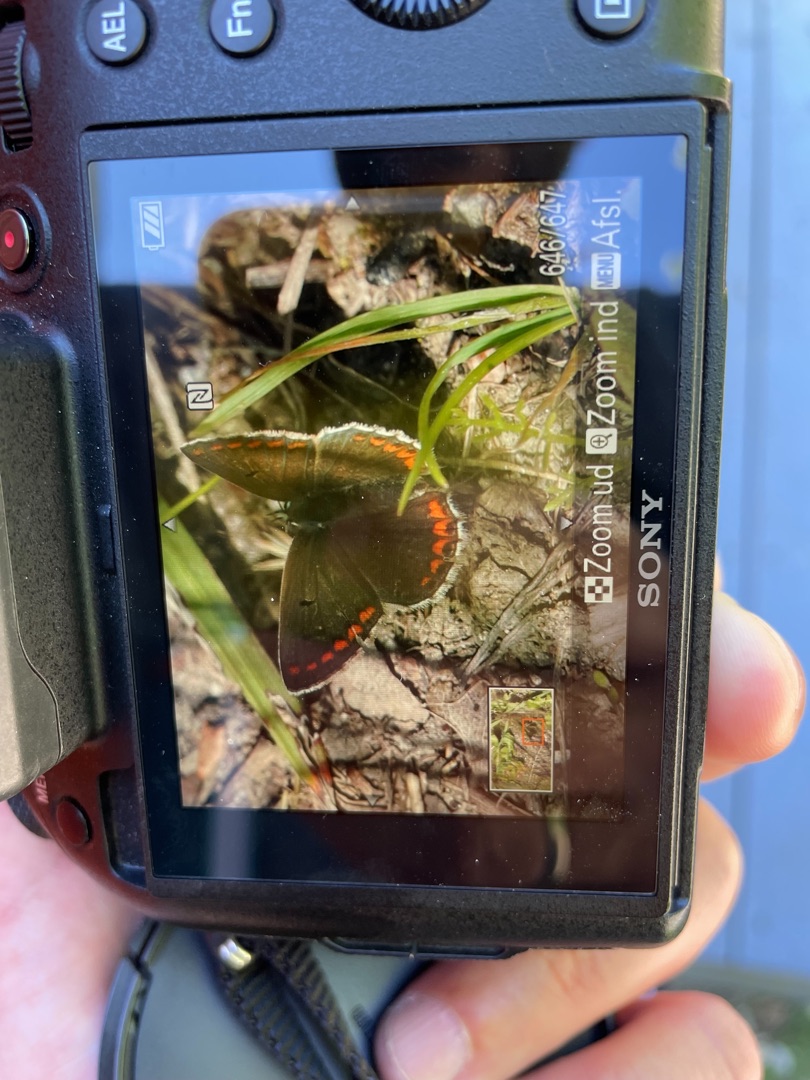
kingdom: Animalia
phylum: Arthropoda
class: Insecta
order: Lepidoptera
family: Lycaenidae
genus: Aricia
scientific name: Aricia agestis
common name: Rødplettet blåfugl
